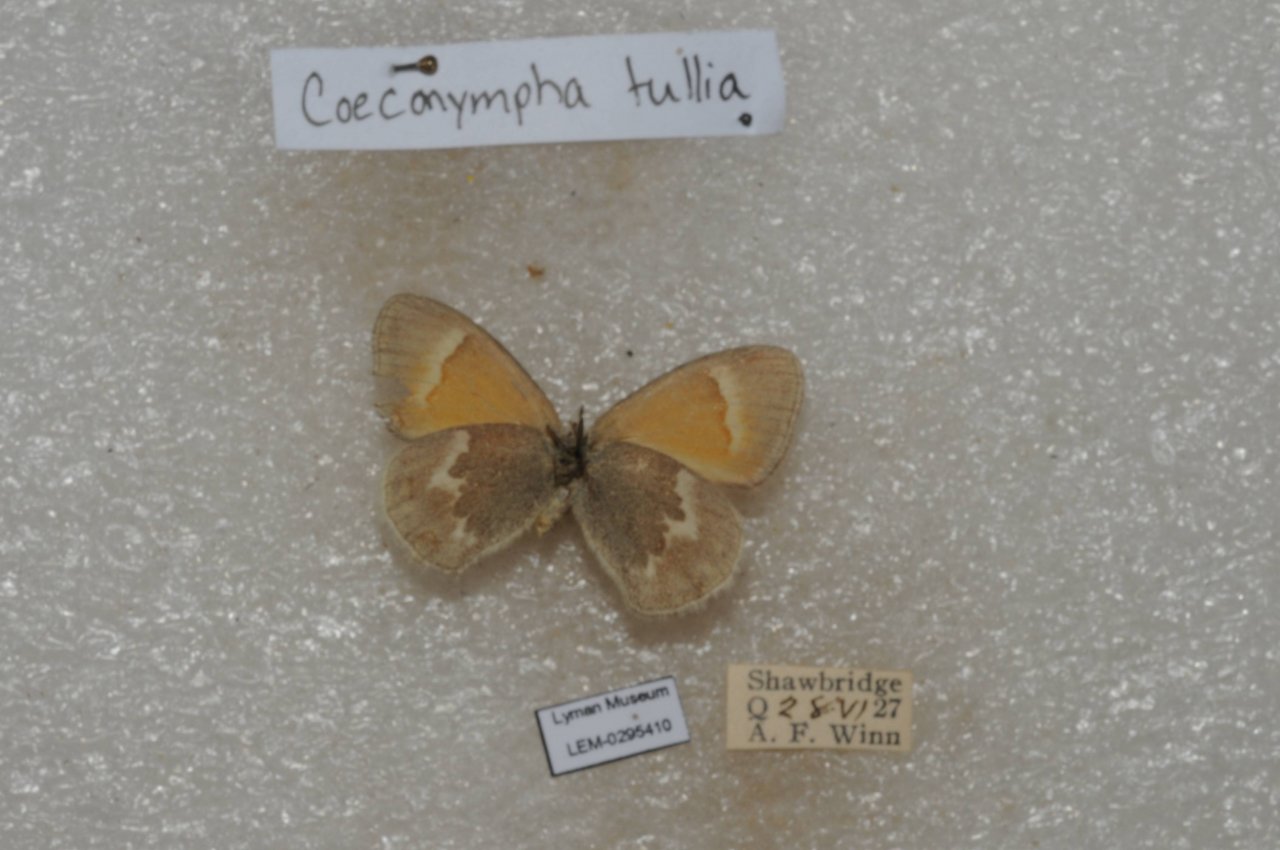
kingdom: Animalia
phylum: Arthropoda
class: Insecta
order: Lepidoptera
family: Nymphalidae
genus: Coenonympha
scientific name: Coenonympha tullia
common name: Large Heath
